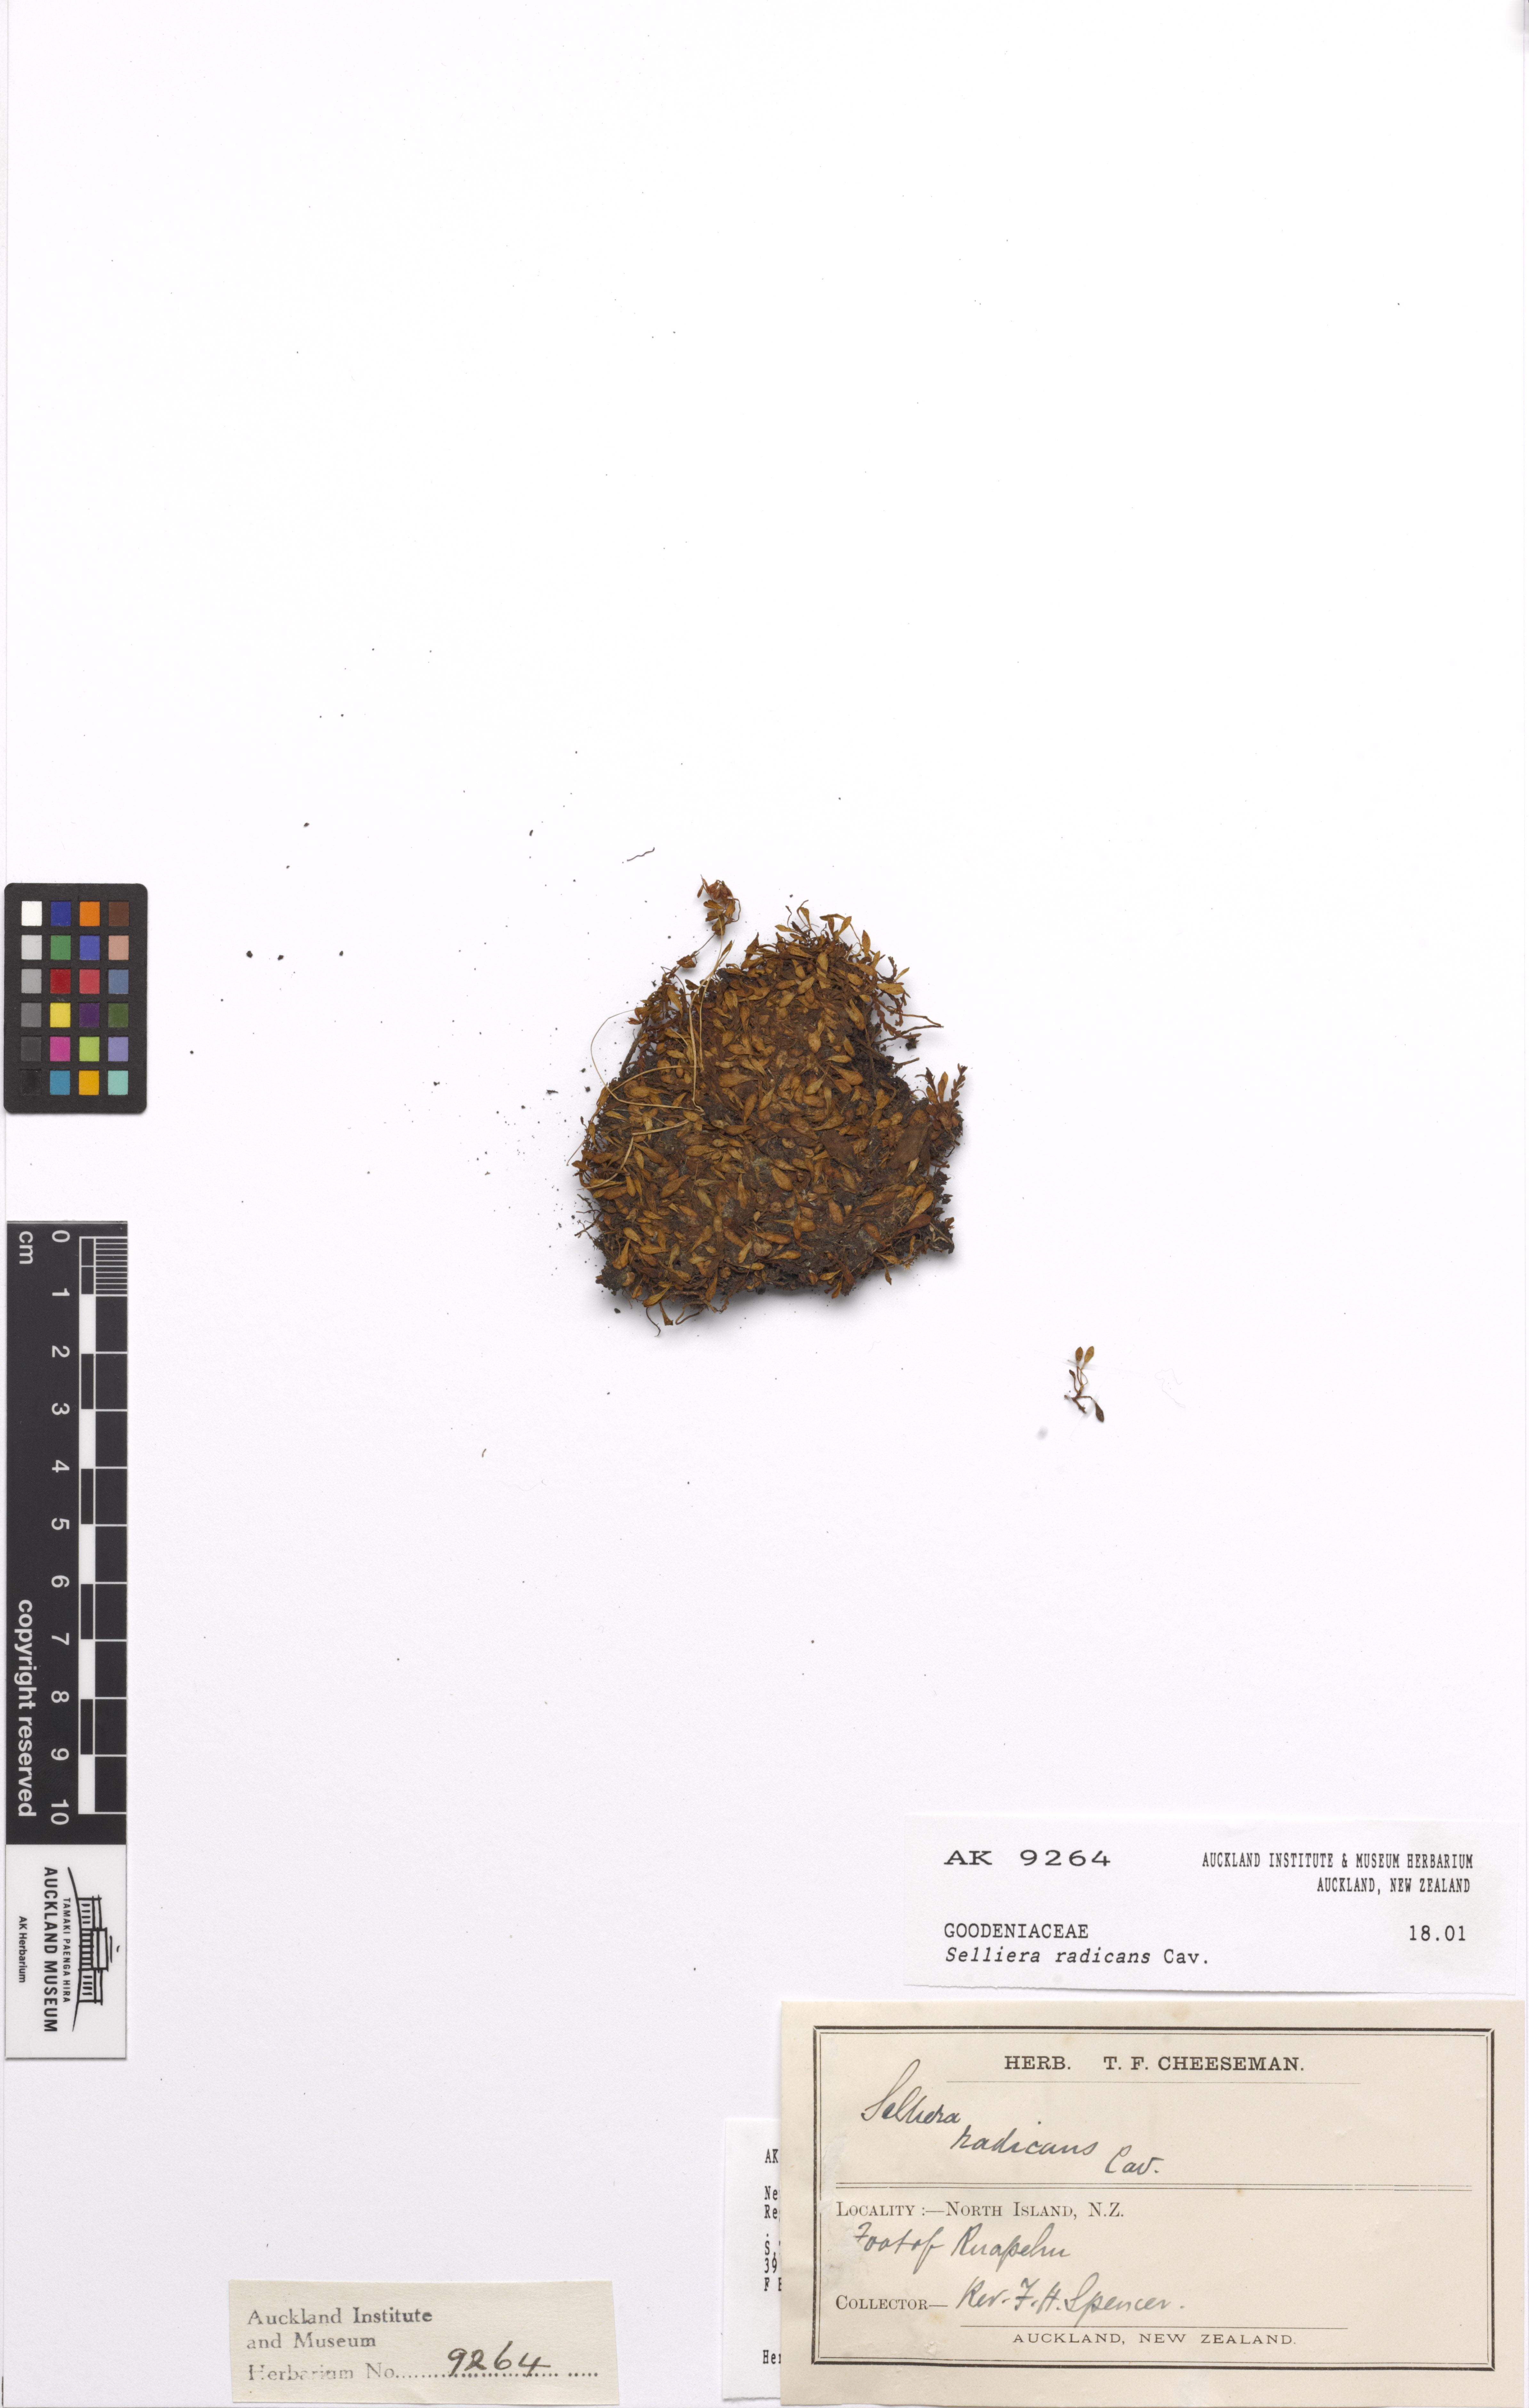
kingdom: Plantae
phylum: Tracheophyta
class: Magnoliopsida
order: Asterales
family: Goodeniaceae
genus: Goodenia
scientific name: Goodenia radicans
